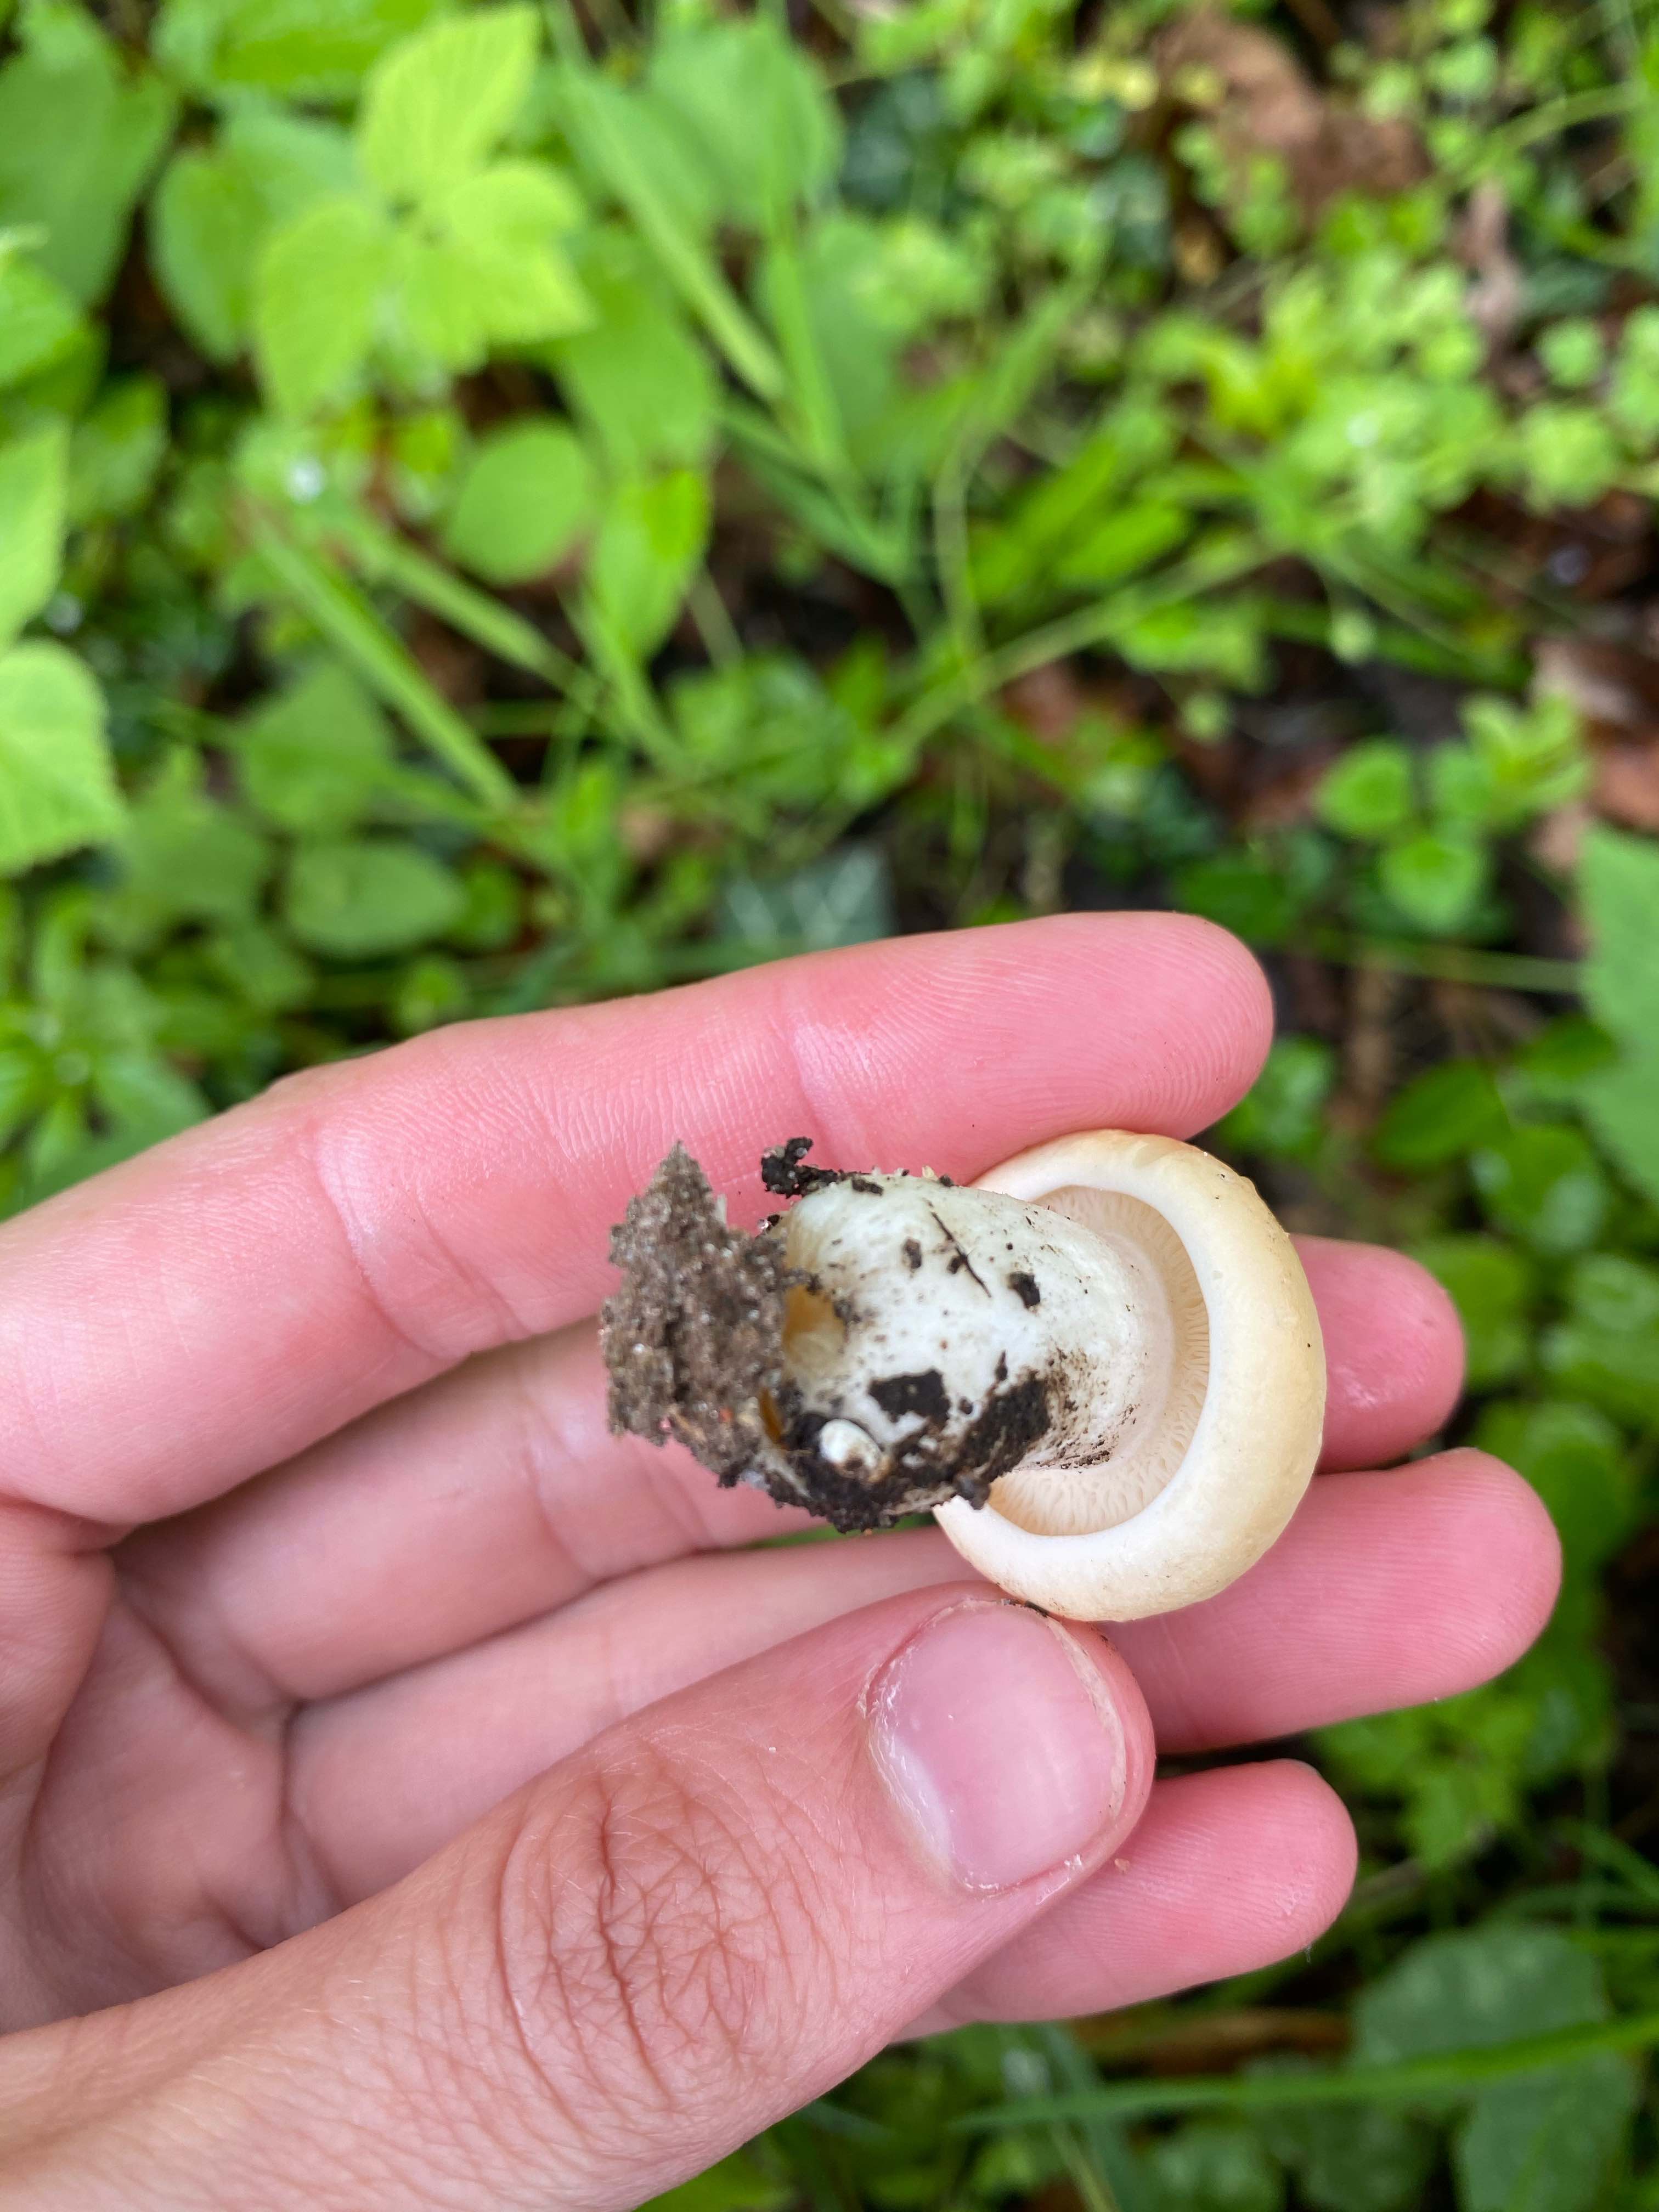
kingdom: Fungi
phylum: Basidiomycota
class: Agaricomycetes
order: Agaricales
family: Lyophyllaceae
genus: Calocybe
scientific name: Calocybe gambosa
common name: vårmusseron
